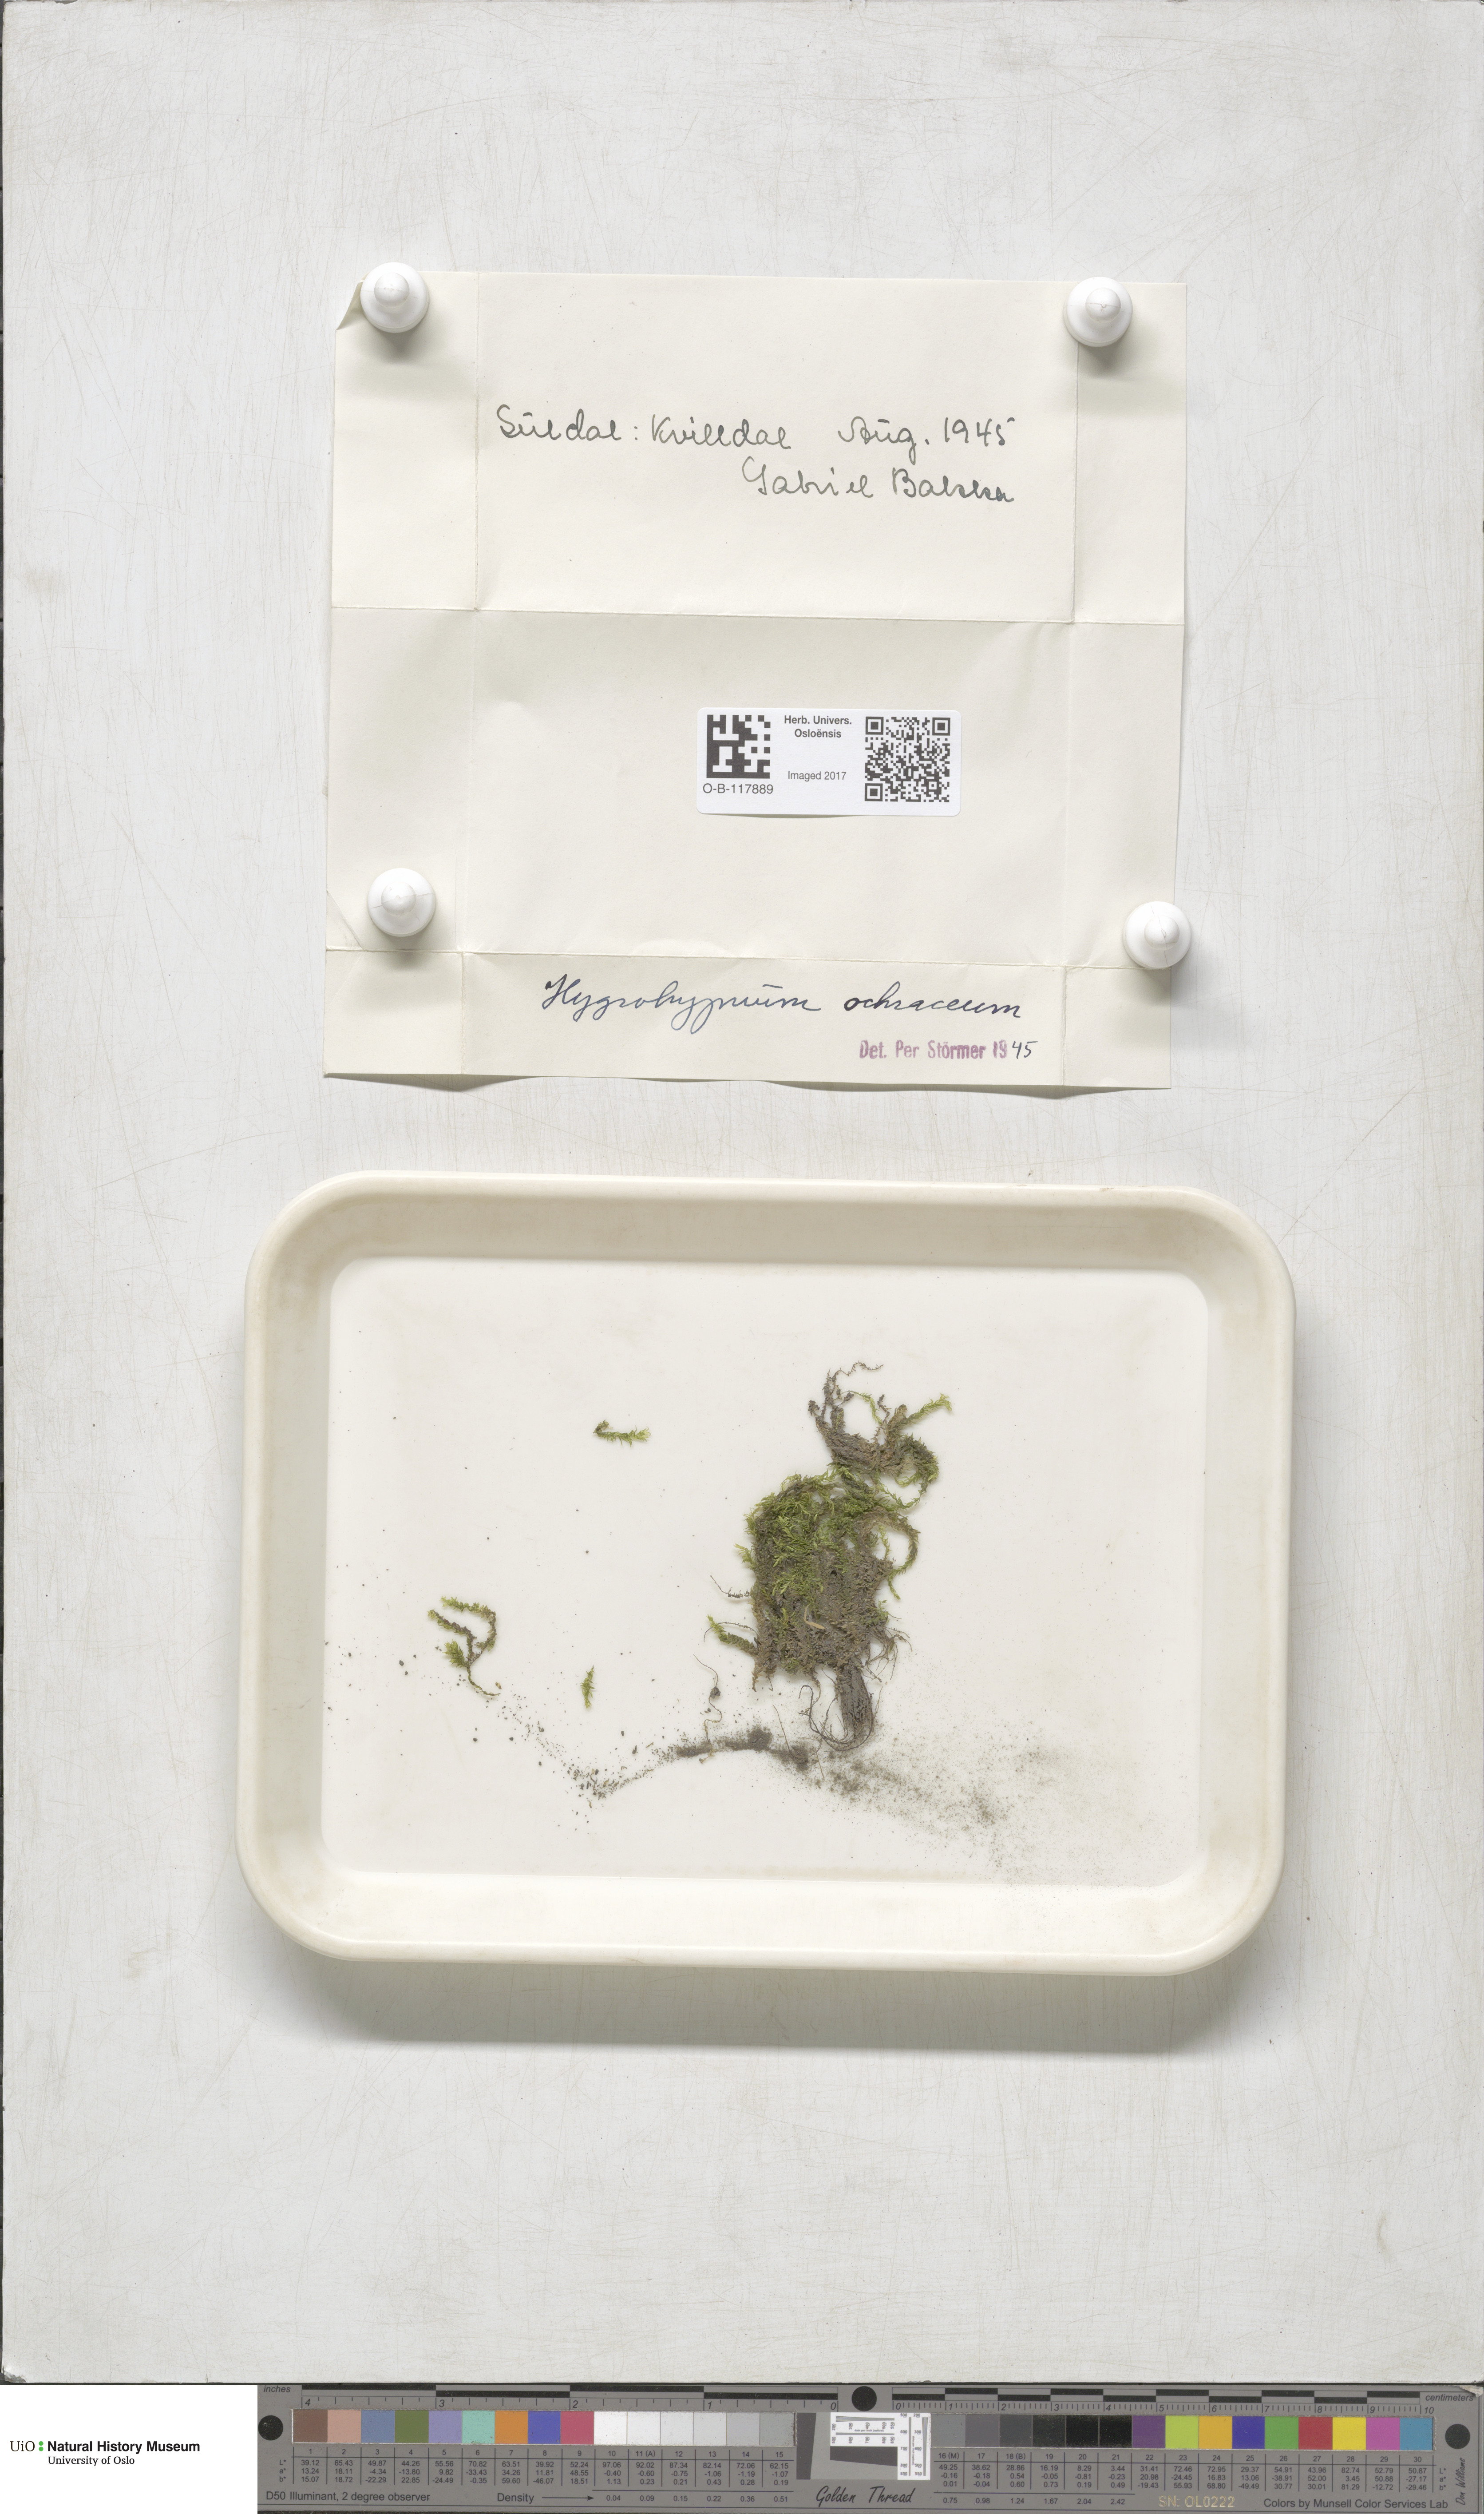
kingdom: Plantae
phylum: Bryophyta
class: Bryopsida
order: Hypnales
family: Scorpidiaceae
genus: Hygrohypnella
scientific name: Hygrohypnella ochracea
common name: Hygrohypnum moss
